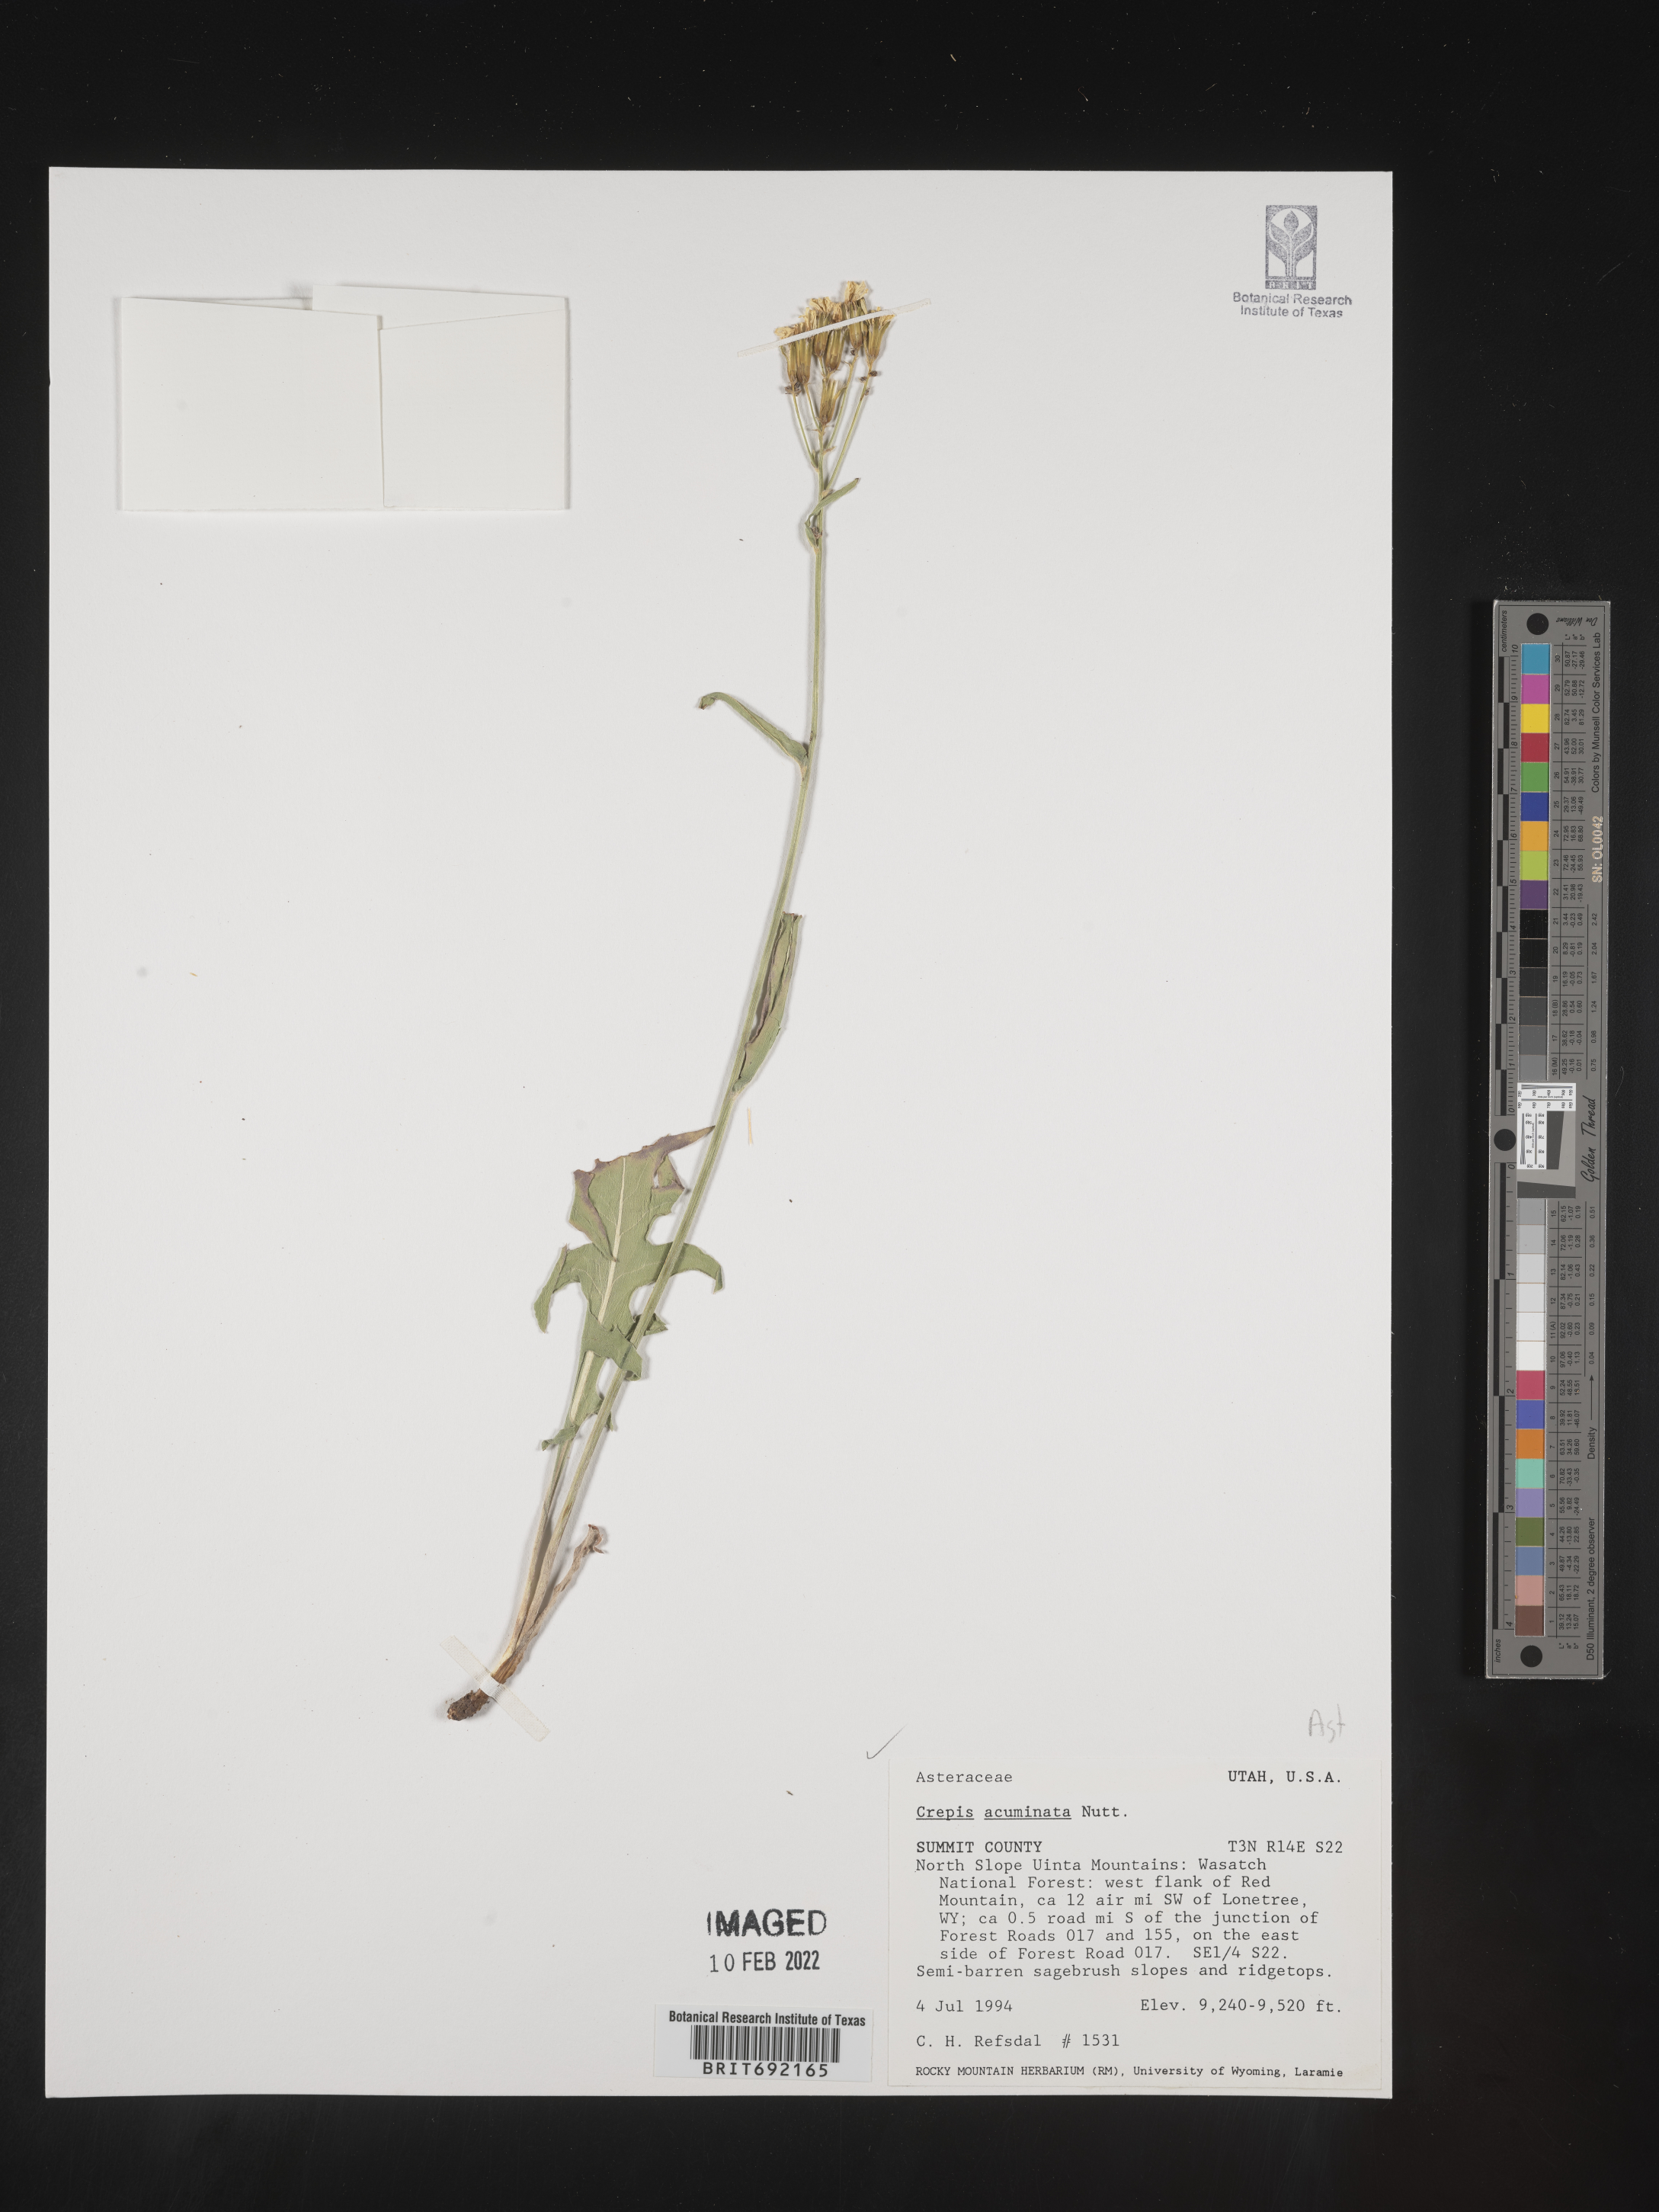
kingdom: Plantae
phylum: Tracheophyta
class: Magnoliopsida
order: Asterales
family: Asteraceae
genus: Crepis
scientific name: Crepis acuminata
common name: Longleaf hawk's-beard
